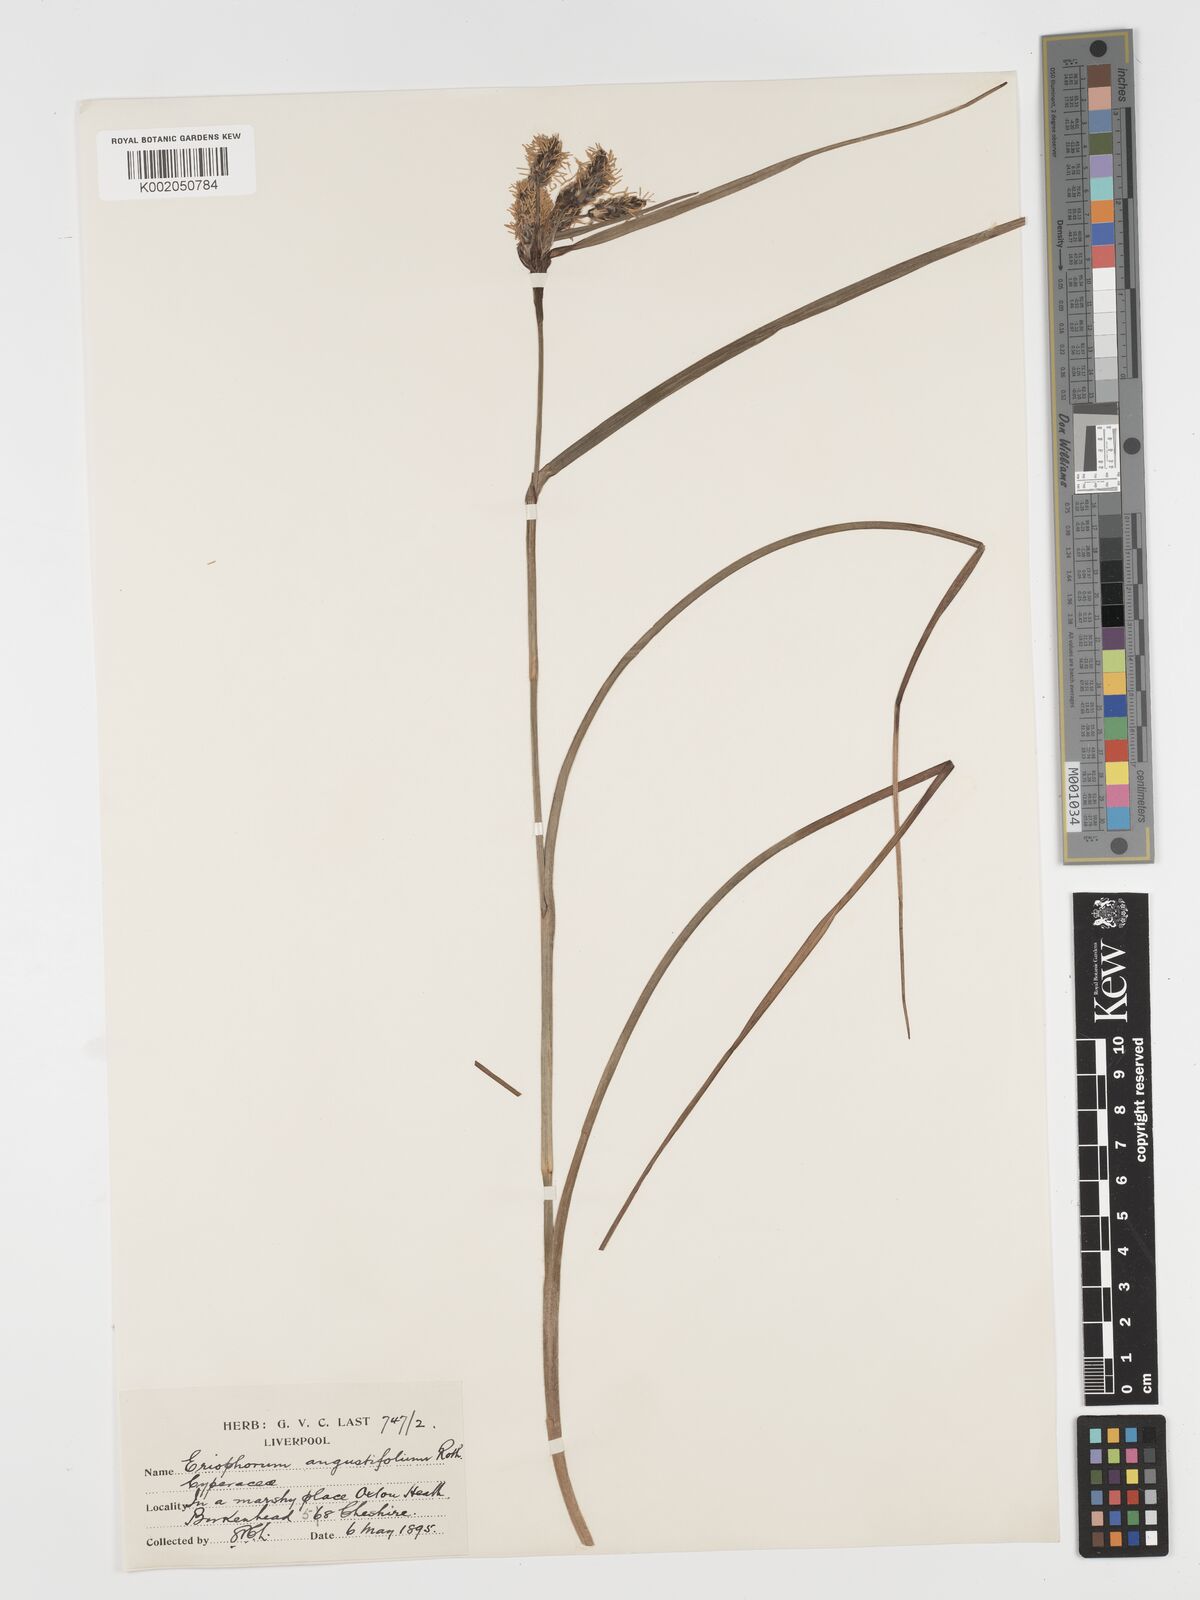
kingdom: Plantae
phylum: Tracheophyta
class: Liliopsida
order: Poales
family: Cyperaceae
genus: Eriophorum
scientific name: Eriophorum angustifolium
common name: Common cottongrass
